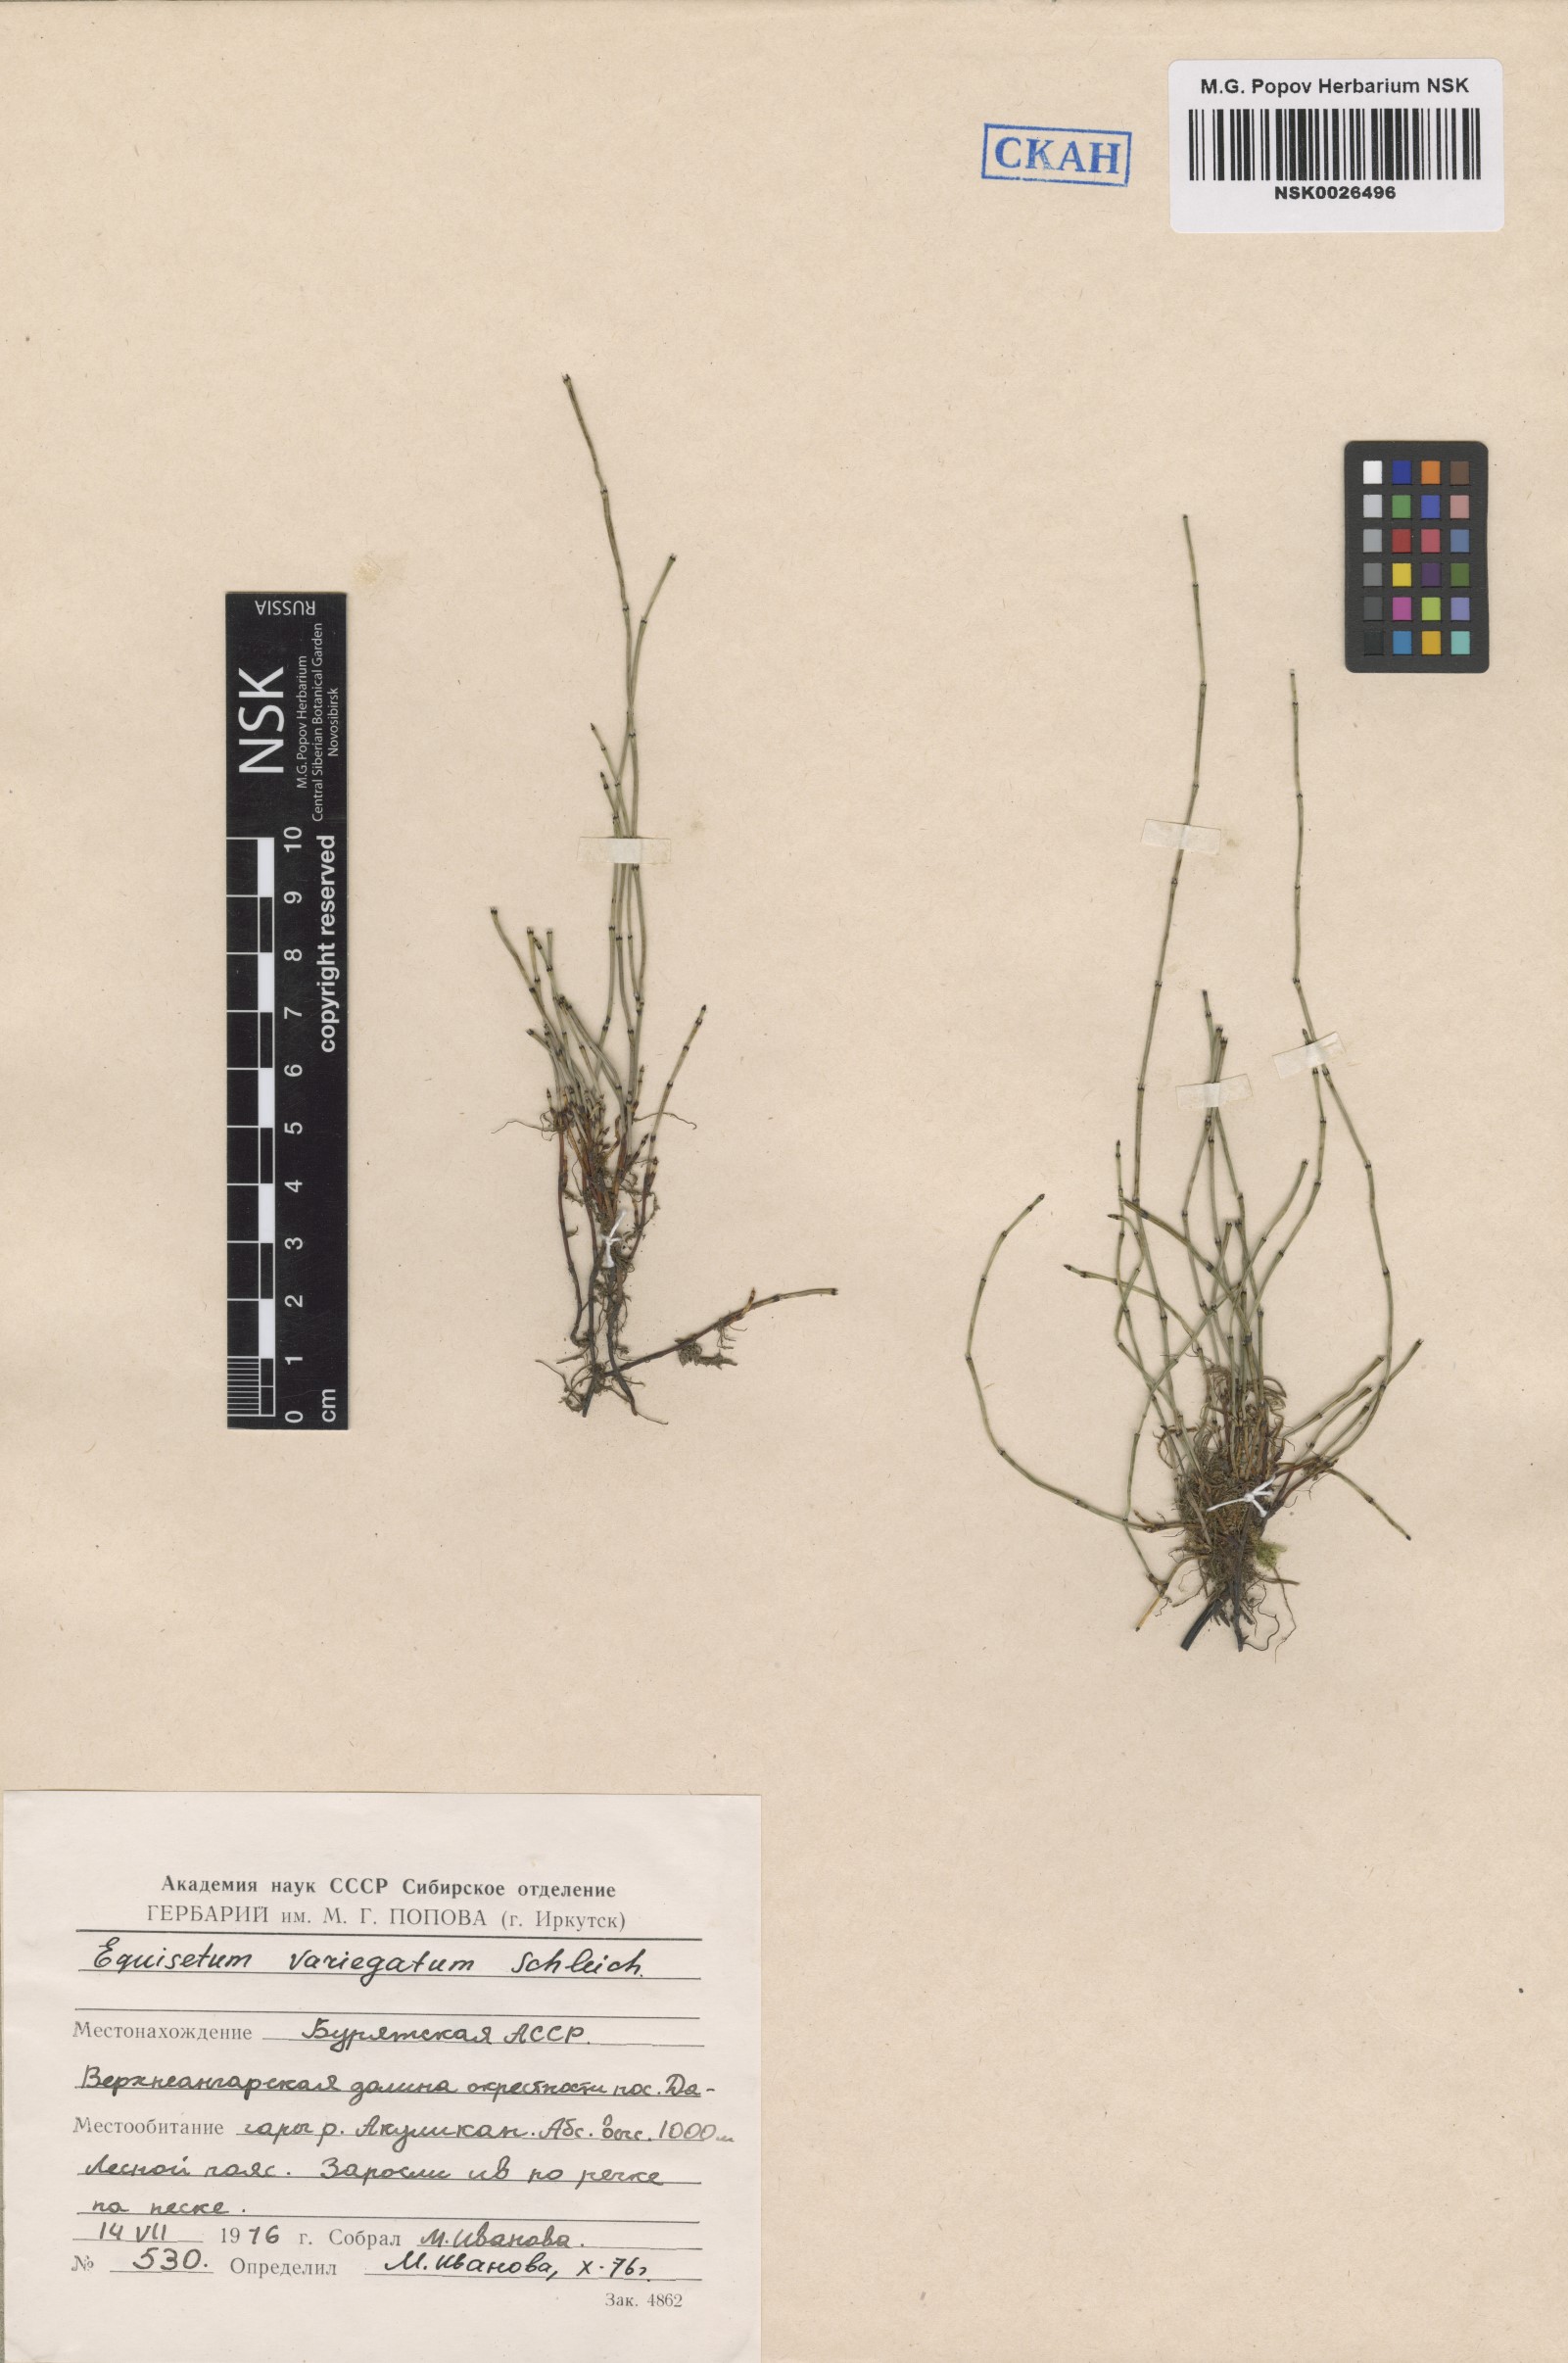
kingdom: Plantae
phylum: Tracheophyta
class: Polypodiopsida
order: Equisetales
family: Equisetaceae
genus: Equisetum
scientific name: Equisetum variegatum
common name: Variegated horsetail
